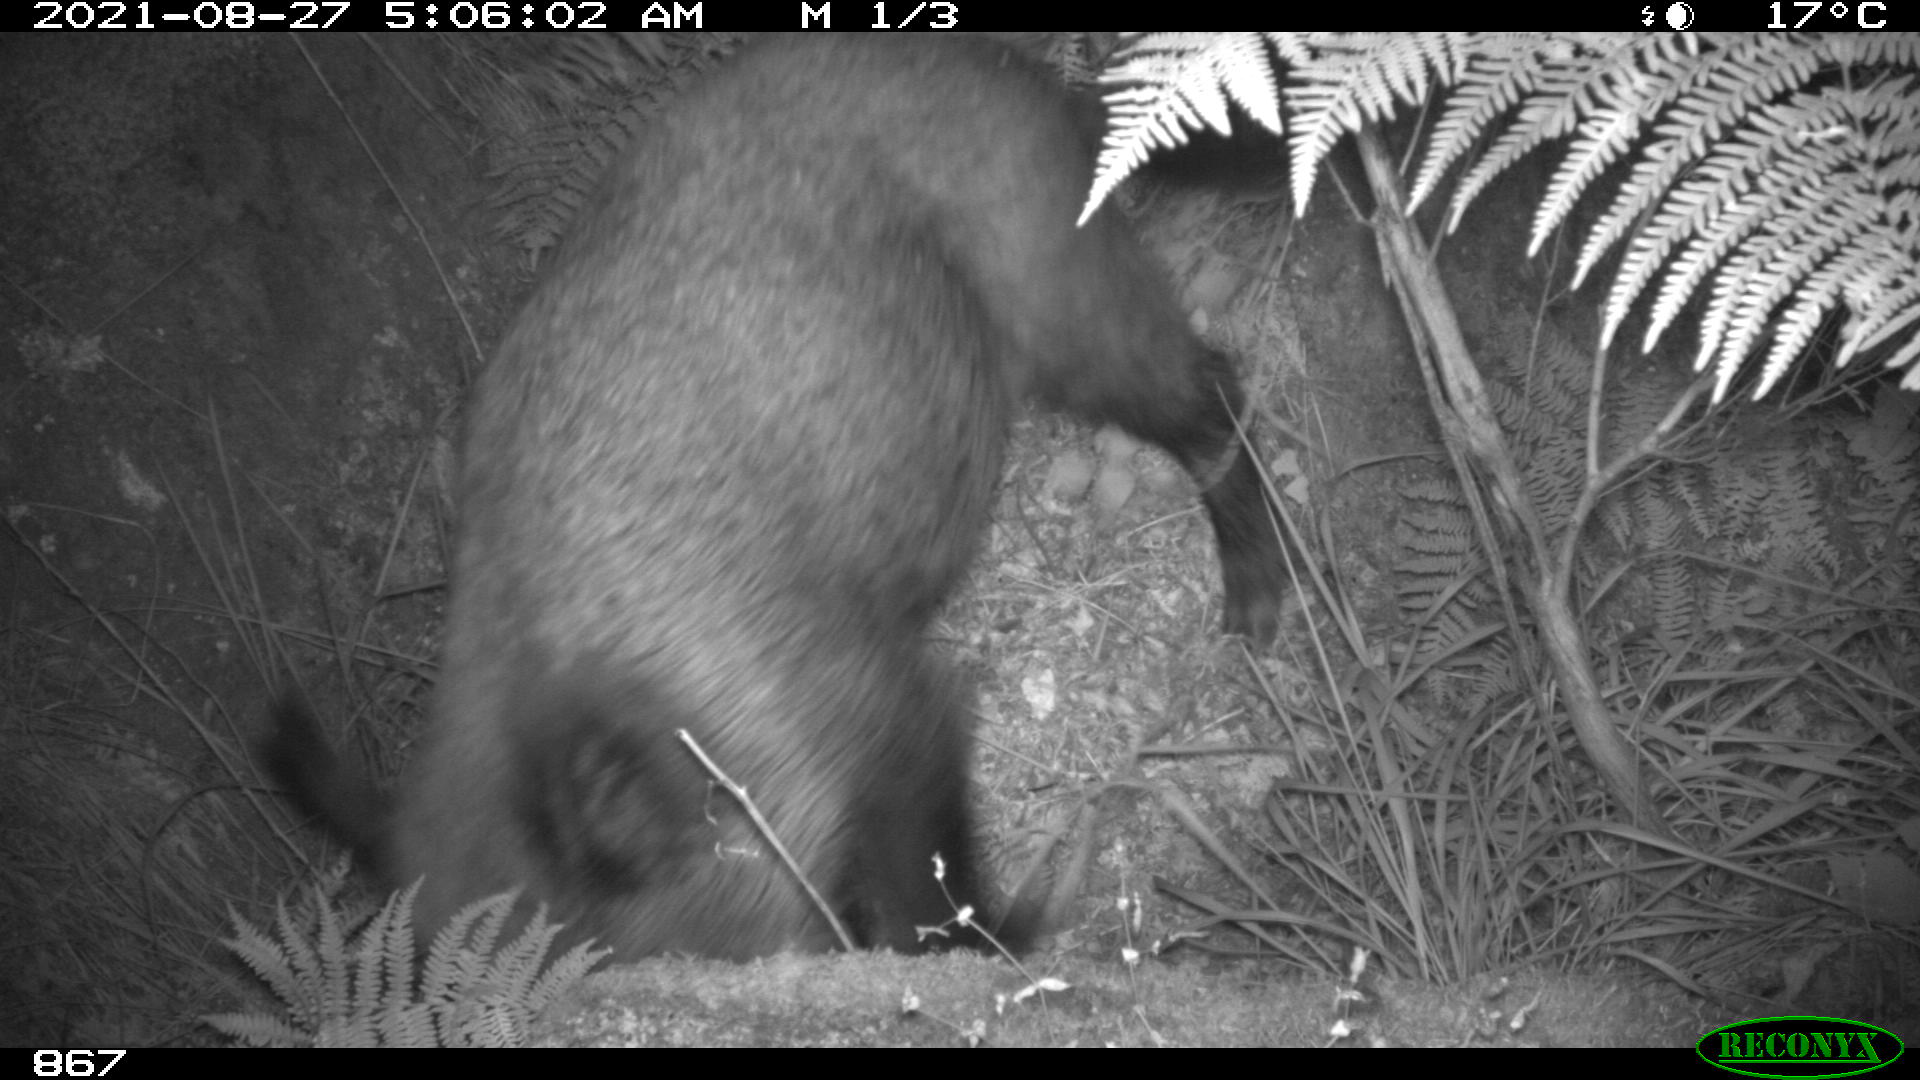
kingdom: Animalia
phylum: Chordata
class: Mammalia
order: Artiodactyla
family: Suidae
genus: Sus
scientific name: Sus scrofa
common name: Wild boar
